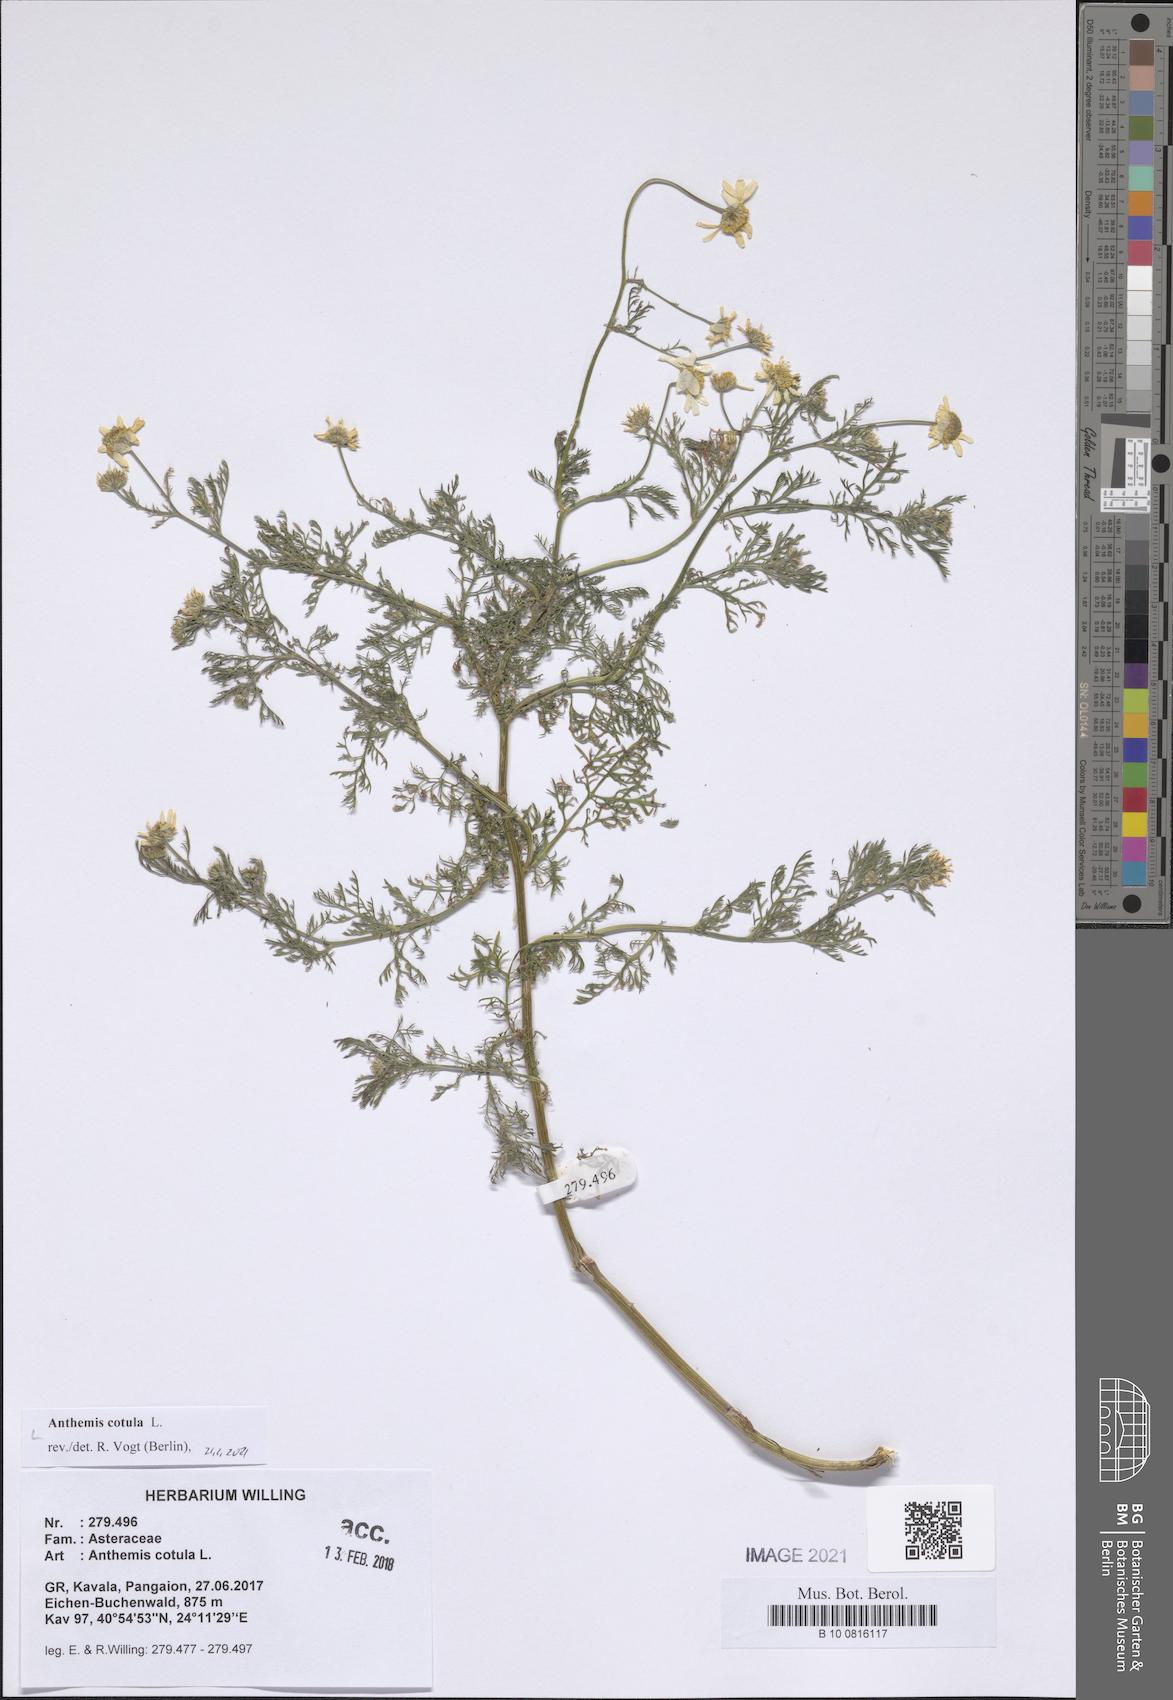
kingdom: Plantae
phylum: Tracheophyta
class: Magnoliopsida
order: Asterales
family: Asteraceae
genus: Anthemis
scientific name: Anthemis cotula
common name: Stinking chamomile
